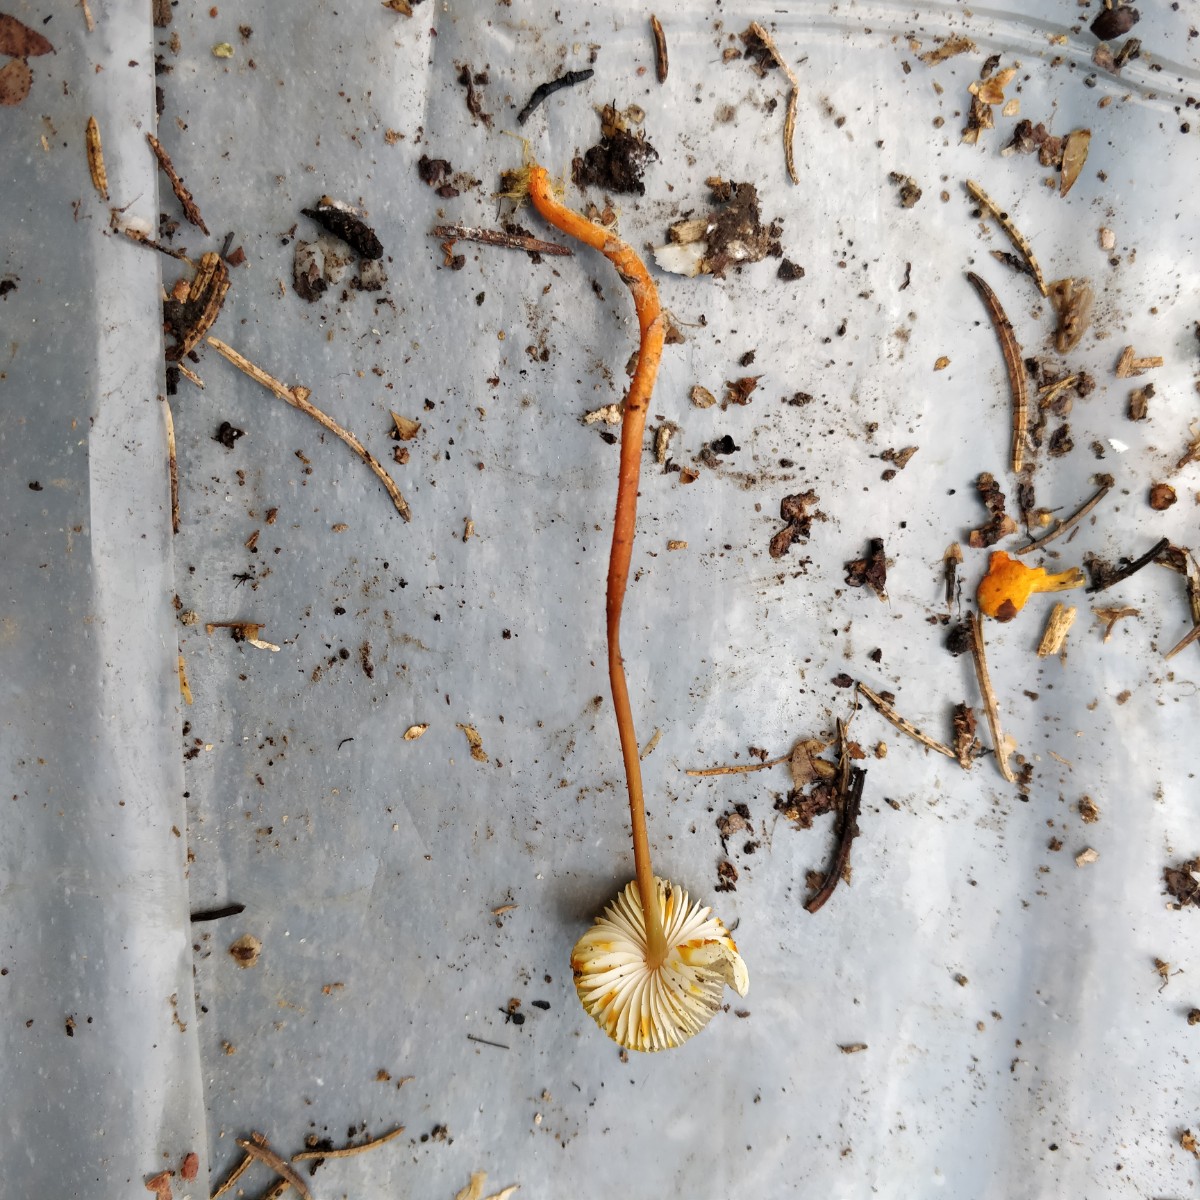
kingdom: Fungi
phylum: Basidiomycota
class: Agaricomycetes
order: Agaricales
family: Mycenaceae
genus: Mycena
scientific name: Mycena crocata
